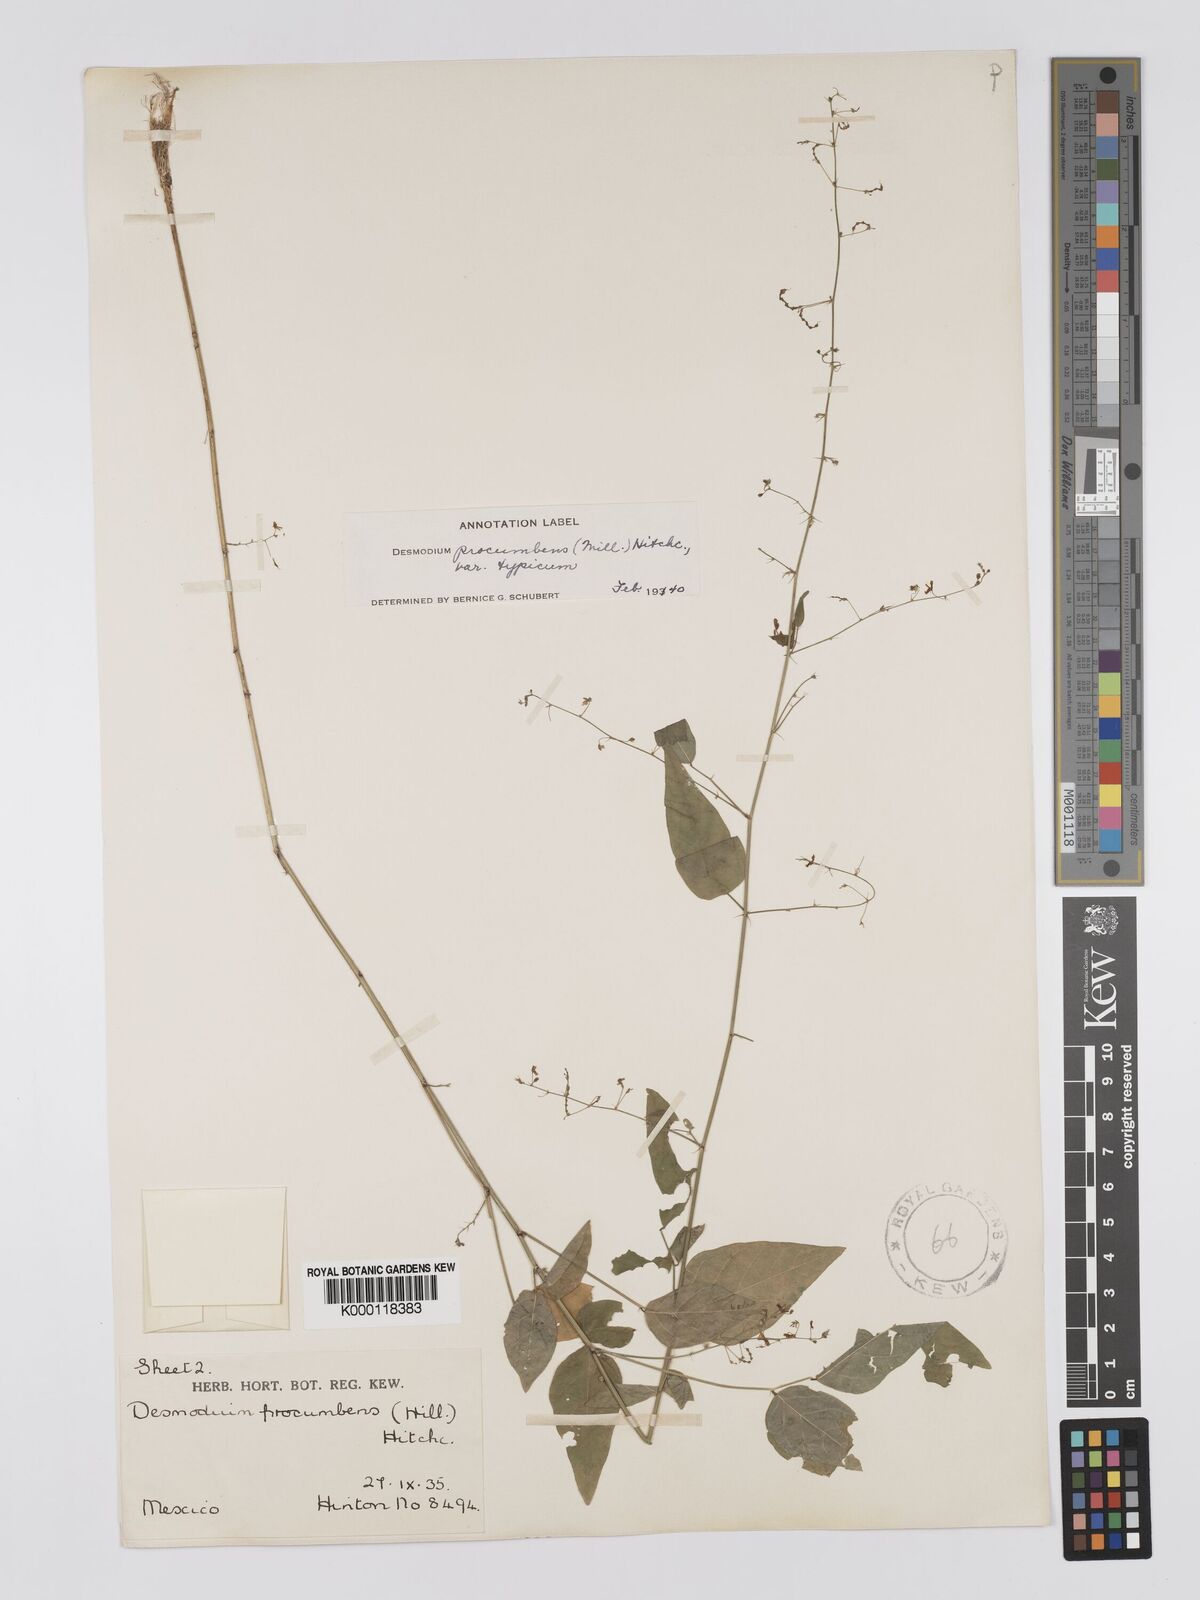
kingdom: Plantae
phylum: Tracheophyta
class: Magnoliopsida
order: Fabales
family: Fabaceae
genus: Desmodium
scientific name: Desmodium procumbens
